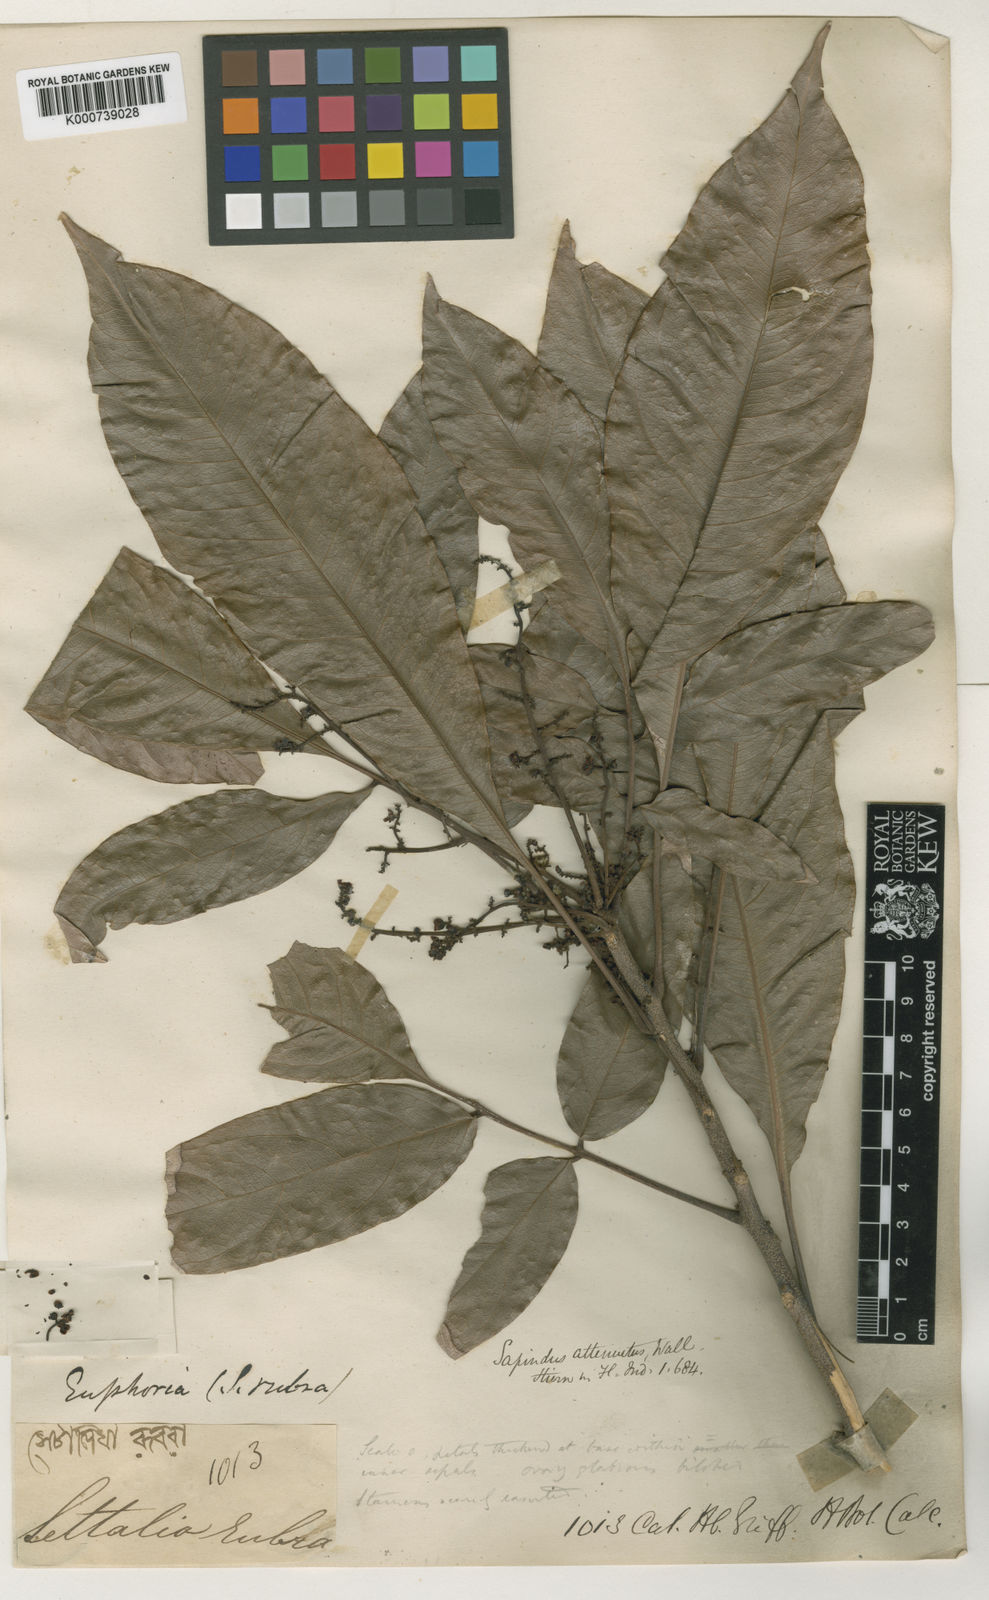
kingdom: Plantae
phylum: Tracheophyta
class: Magnoliopsida
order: Sapindales
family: Sapindaceae
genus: Lepisanthes
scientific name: Lepisanthes senegalensis
